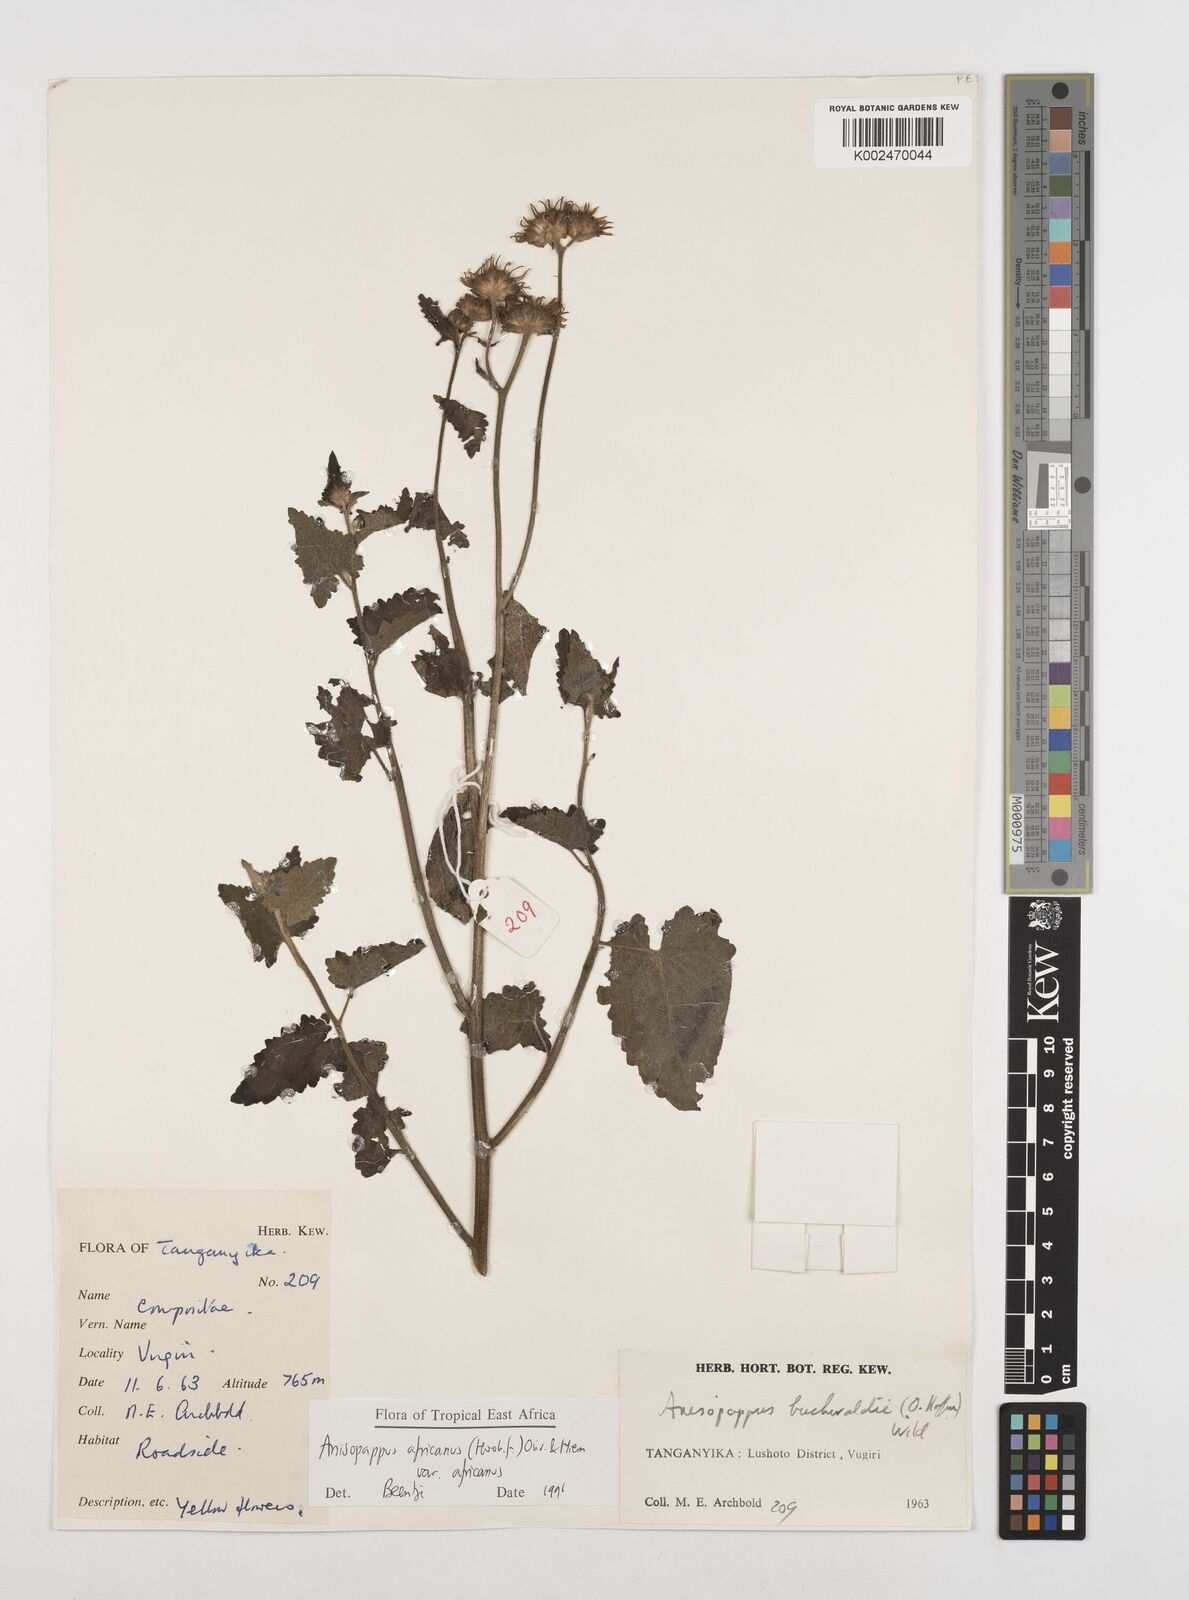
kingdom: Plantae
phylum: Tracheophyta
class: Magnoliopsida
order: Asterales
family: Asteraceae
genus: Anisopappus
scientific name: Anisopappus africanus
